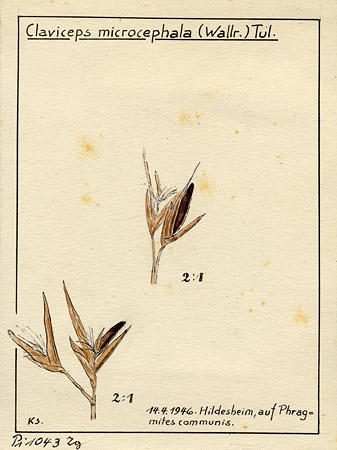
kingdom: Fungi
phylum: Ascomycota
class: Sordariomycetes
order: Hypocreales
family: Clavicipitaceae
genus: Claviceps
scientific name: Claviceps purpurea
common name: Rye ergot
